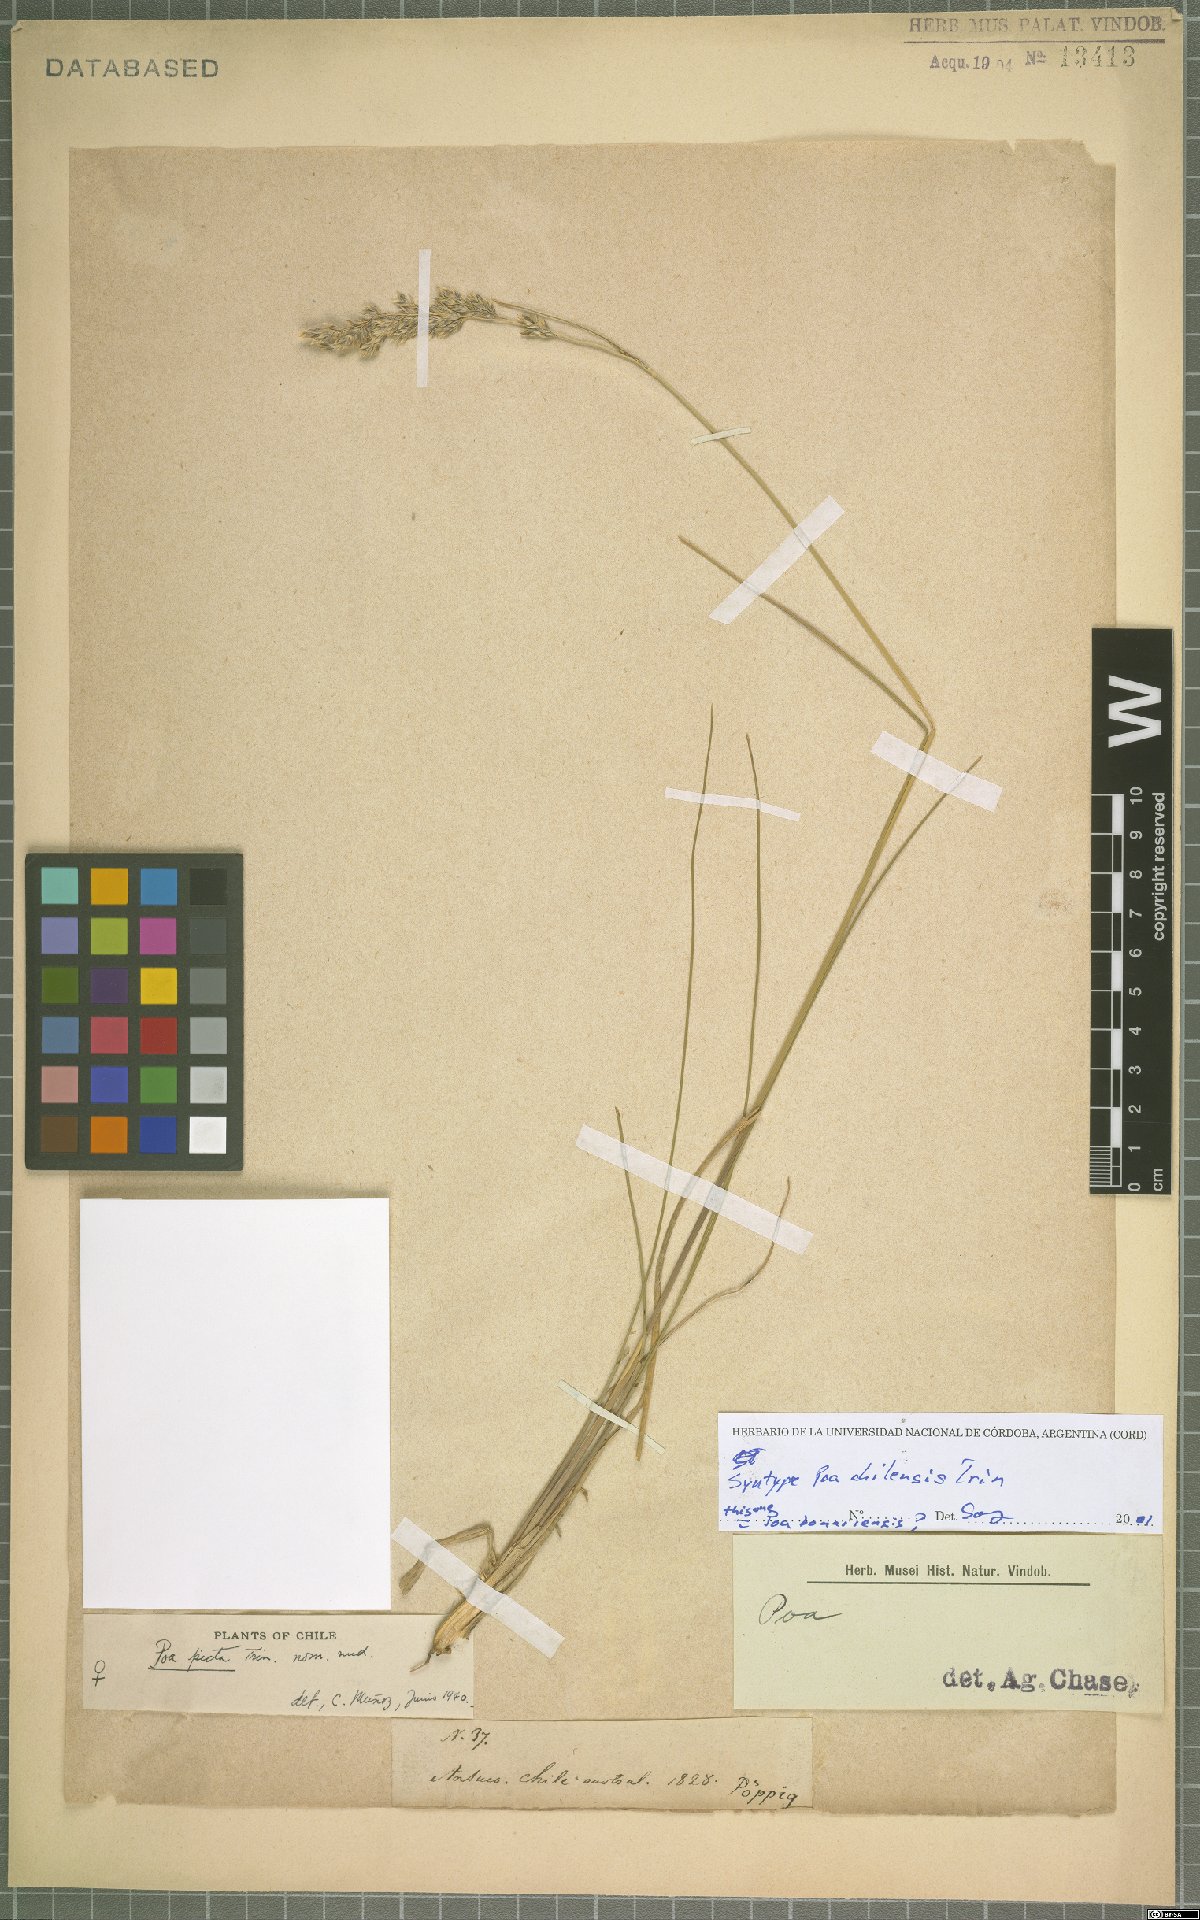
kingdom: Plantae
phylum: Tracheophyta
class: Liliopsida
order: Poales
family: Poaceae
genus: Poa
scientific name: Poa bonariensis
